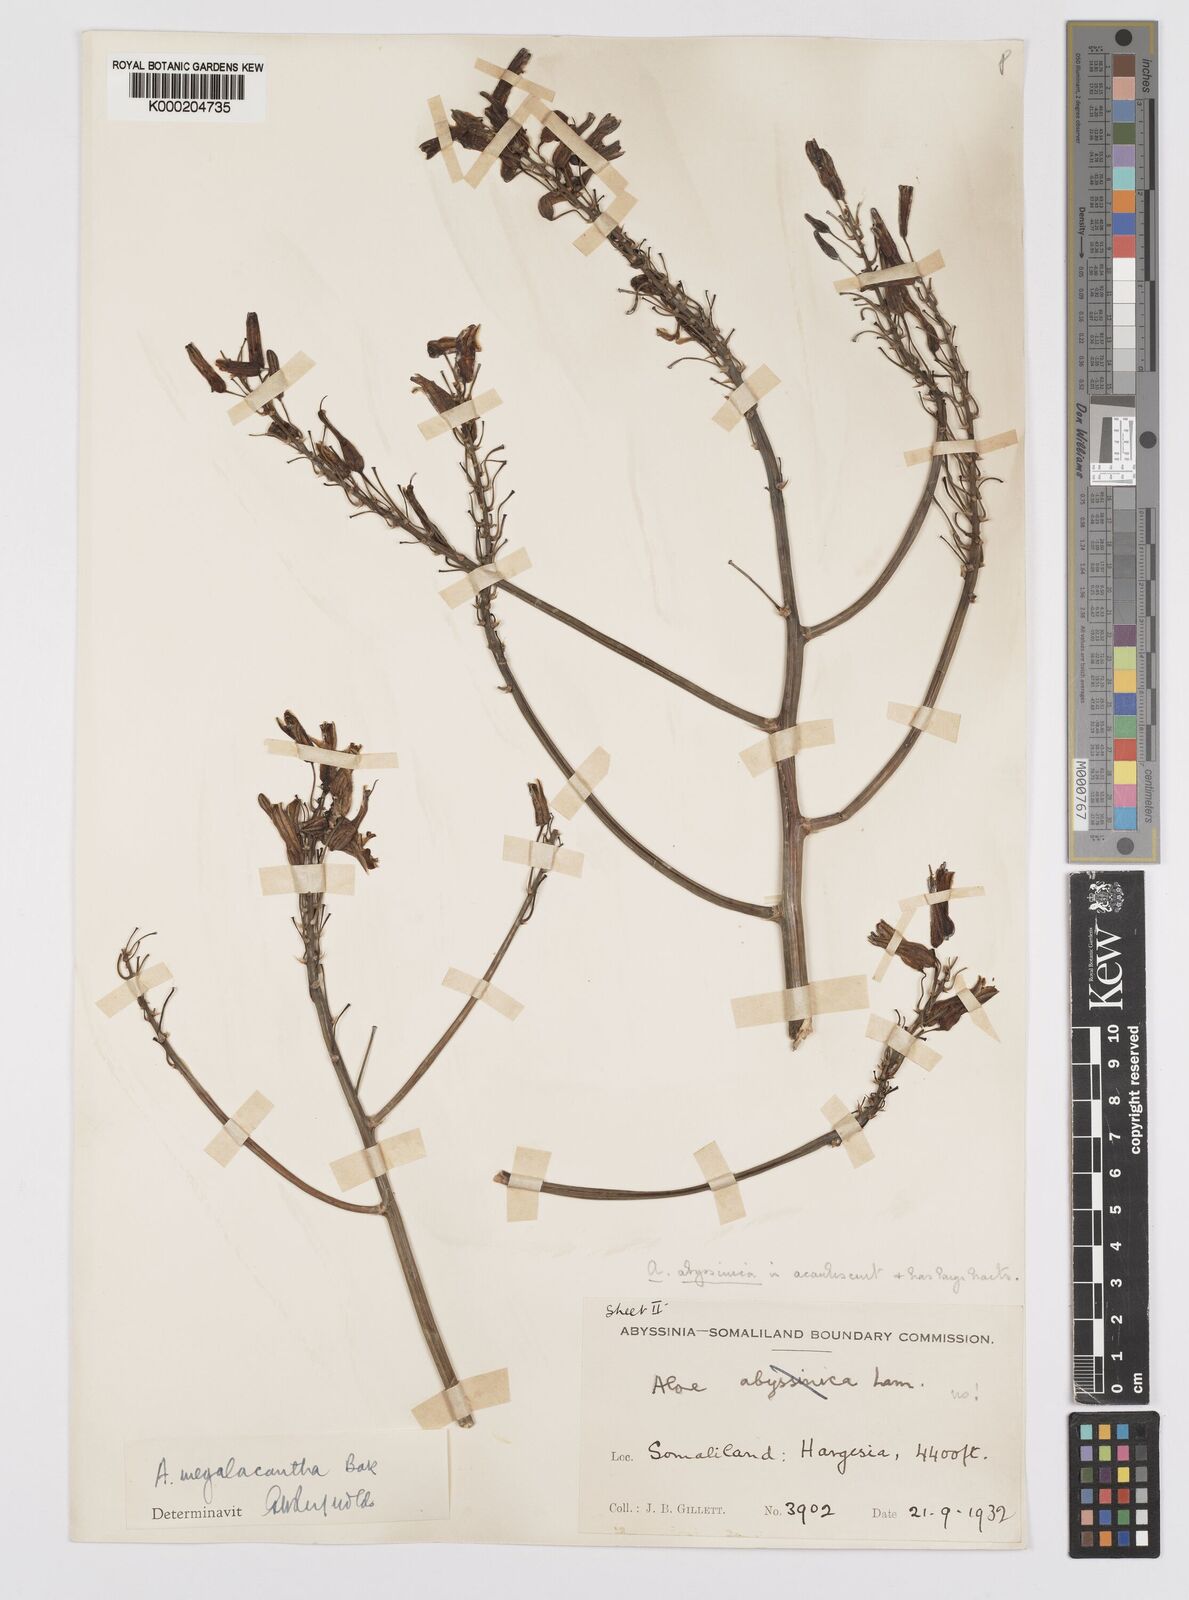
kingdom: Plantae
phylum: Tracheophyta
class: Liliopsida
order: Asparagales
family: Asphodelaceae
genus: Aloe
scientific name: Aloe megalacantha
